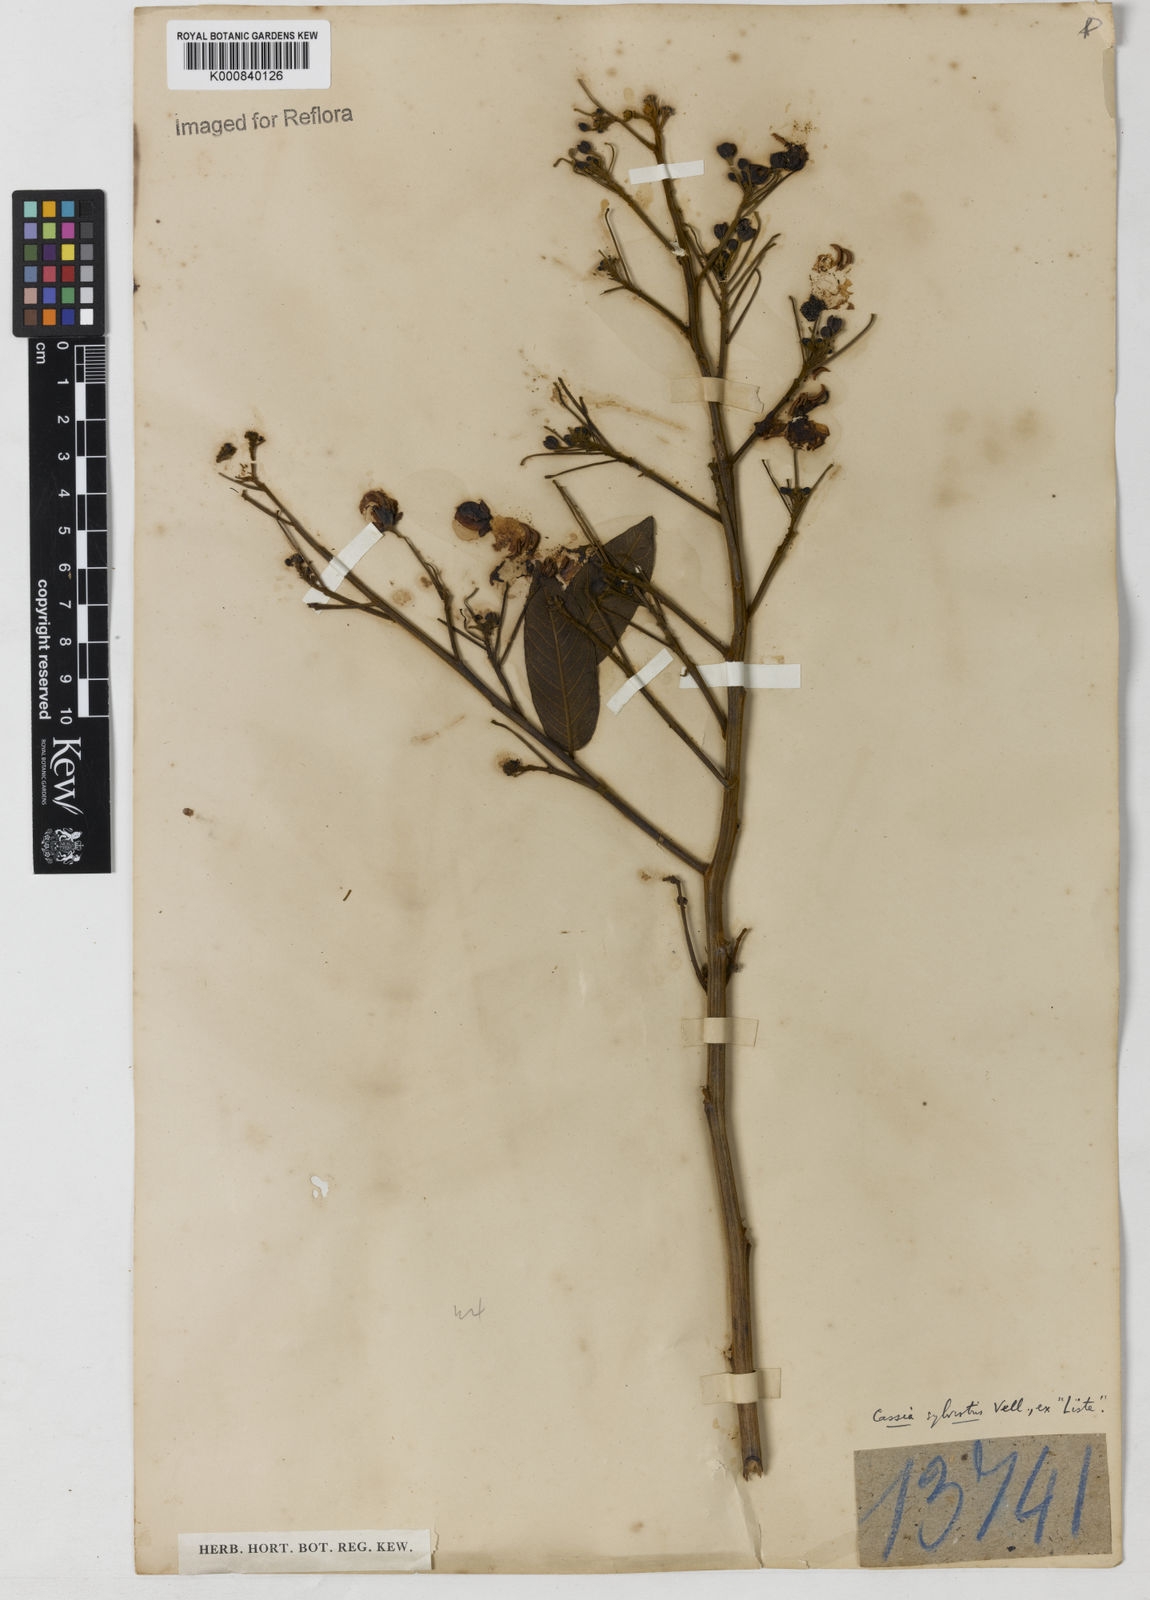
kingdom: Plantae
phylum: Tracheophyta
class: Magnoliopsida
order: Fabales
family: Fabaceae
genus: Senna
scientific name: Senna silvestris
